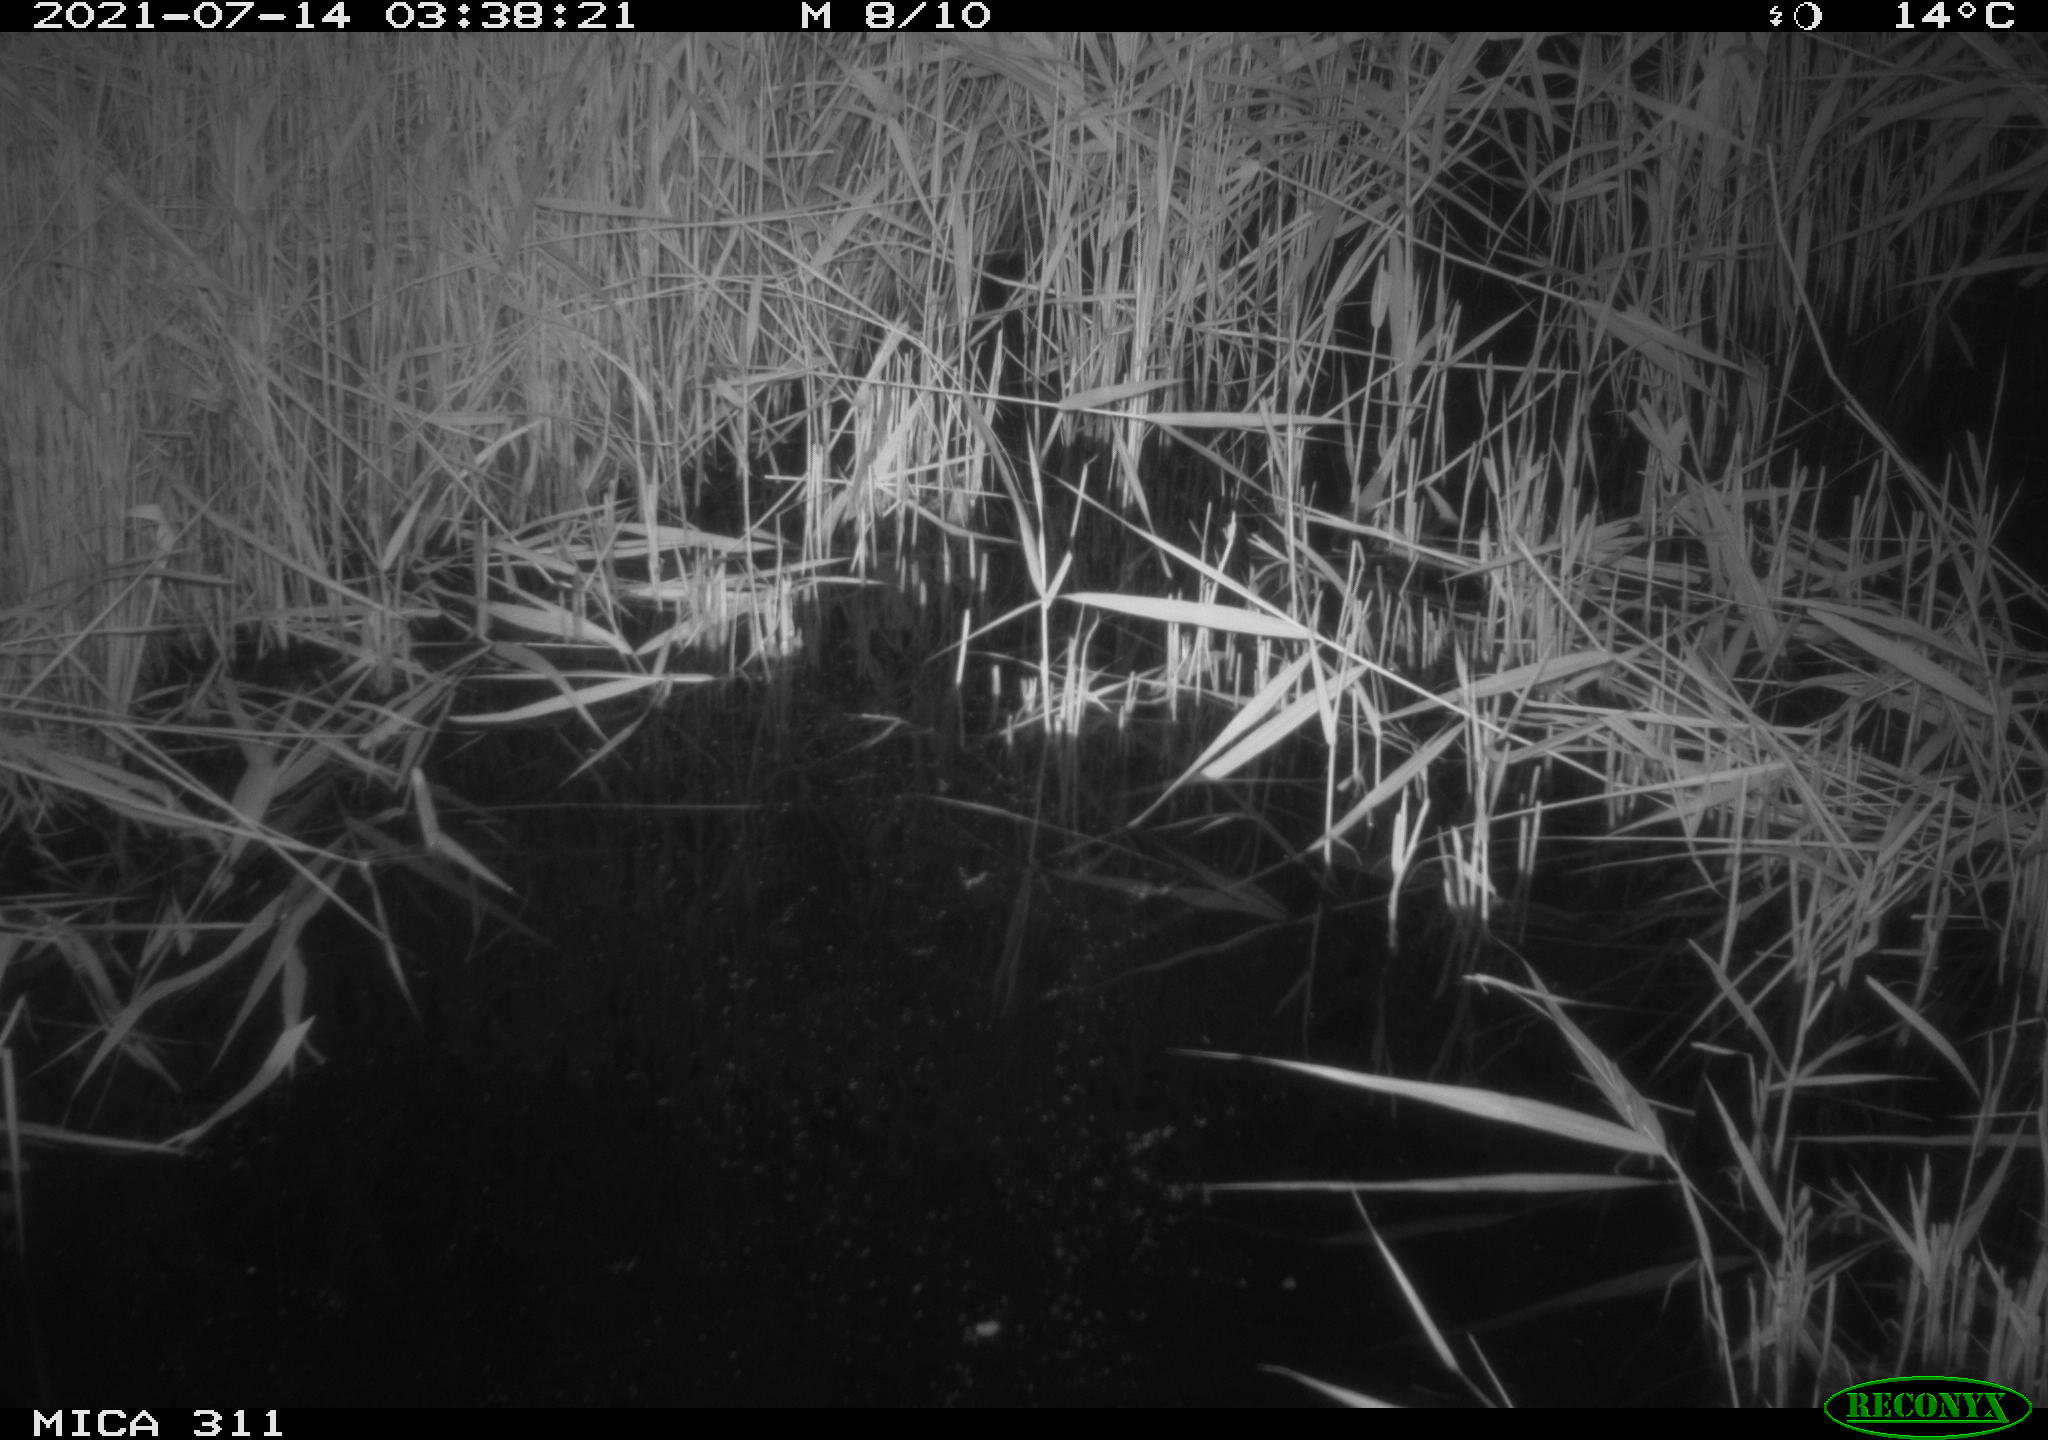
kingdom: Animalia
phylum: Chordata
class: Mammalia
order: Rodentia
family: Muridae
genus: Rattus
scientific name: Rattus norvegicus
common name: Brown rat
